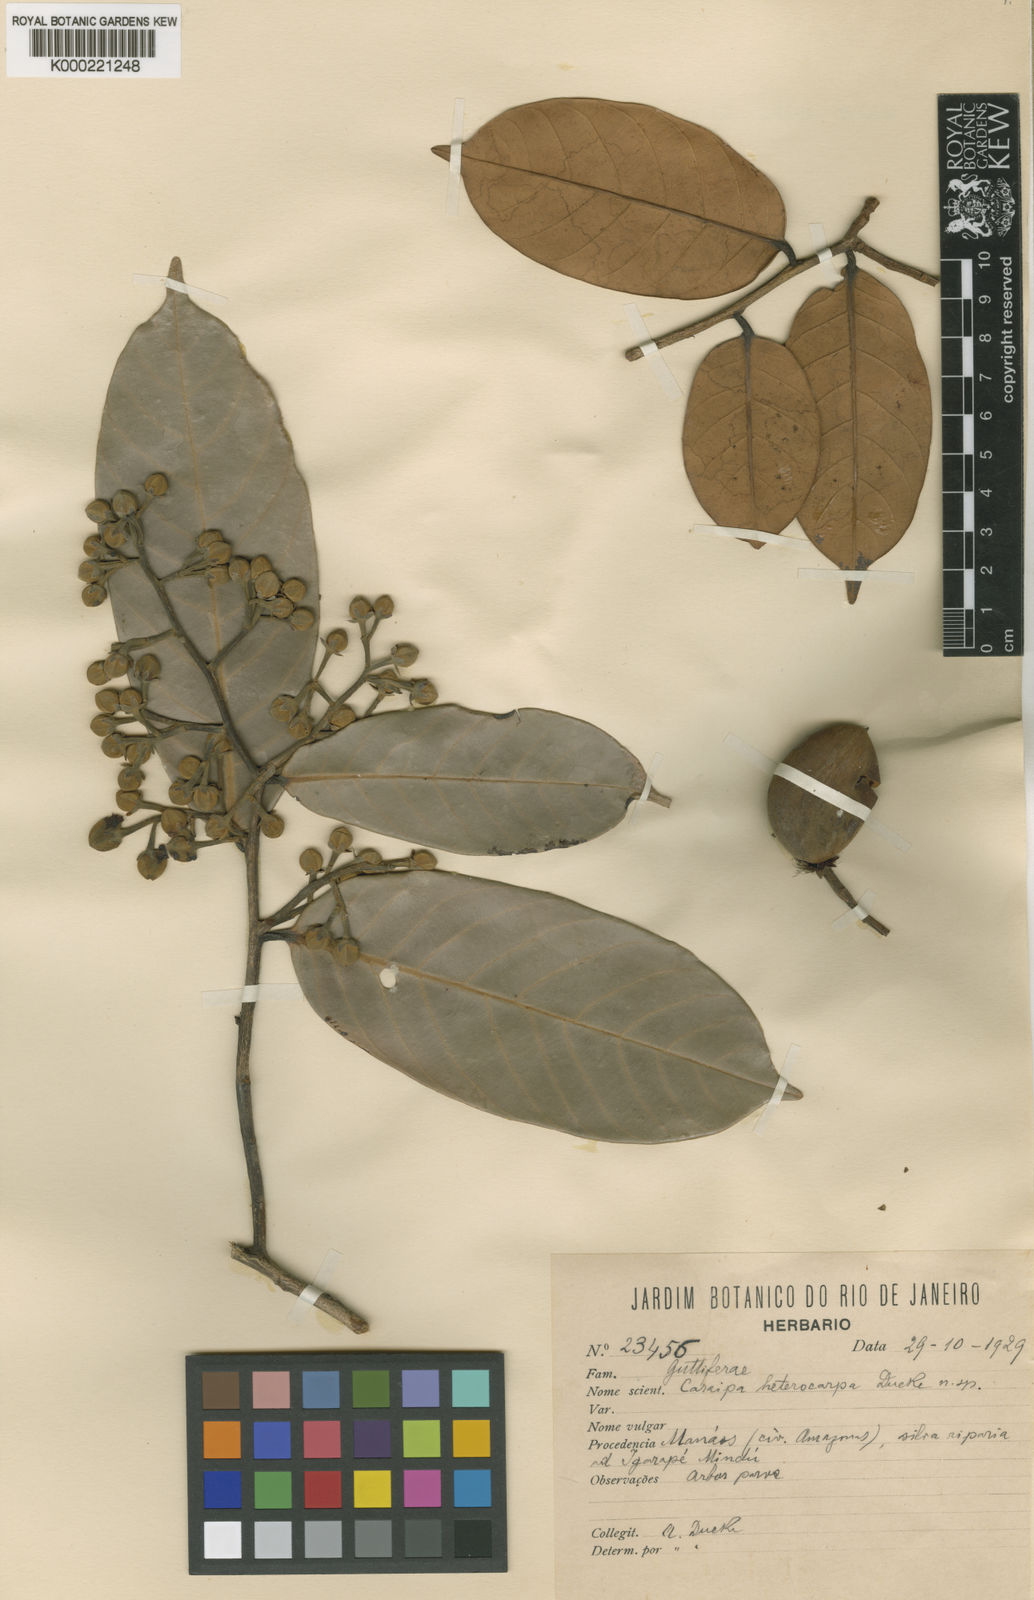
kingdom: Plantae
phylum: Tracheophyta
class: Magnoliopsida
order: Malpighiales
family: Calophyllaceae
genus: Caraipa
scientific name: Caraipa heterocarpa
